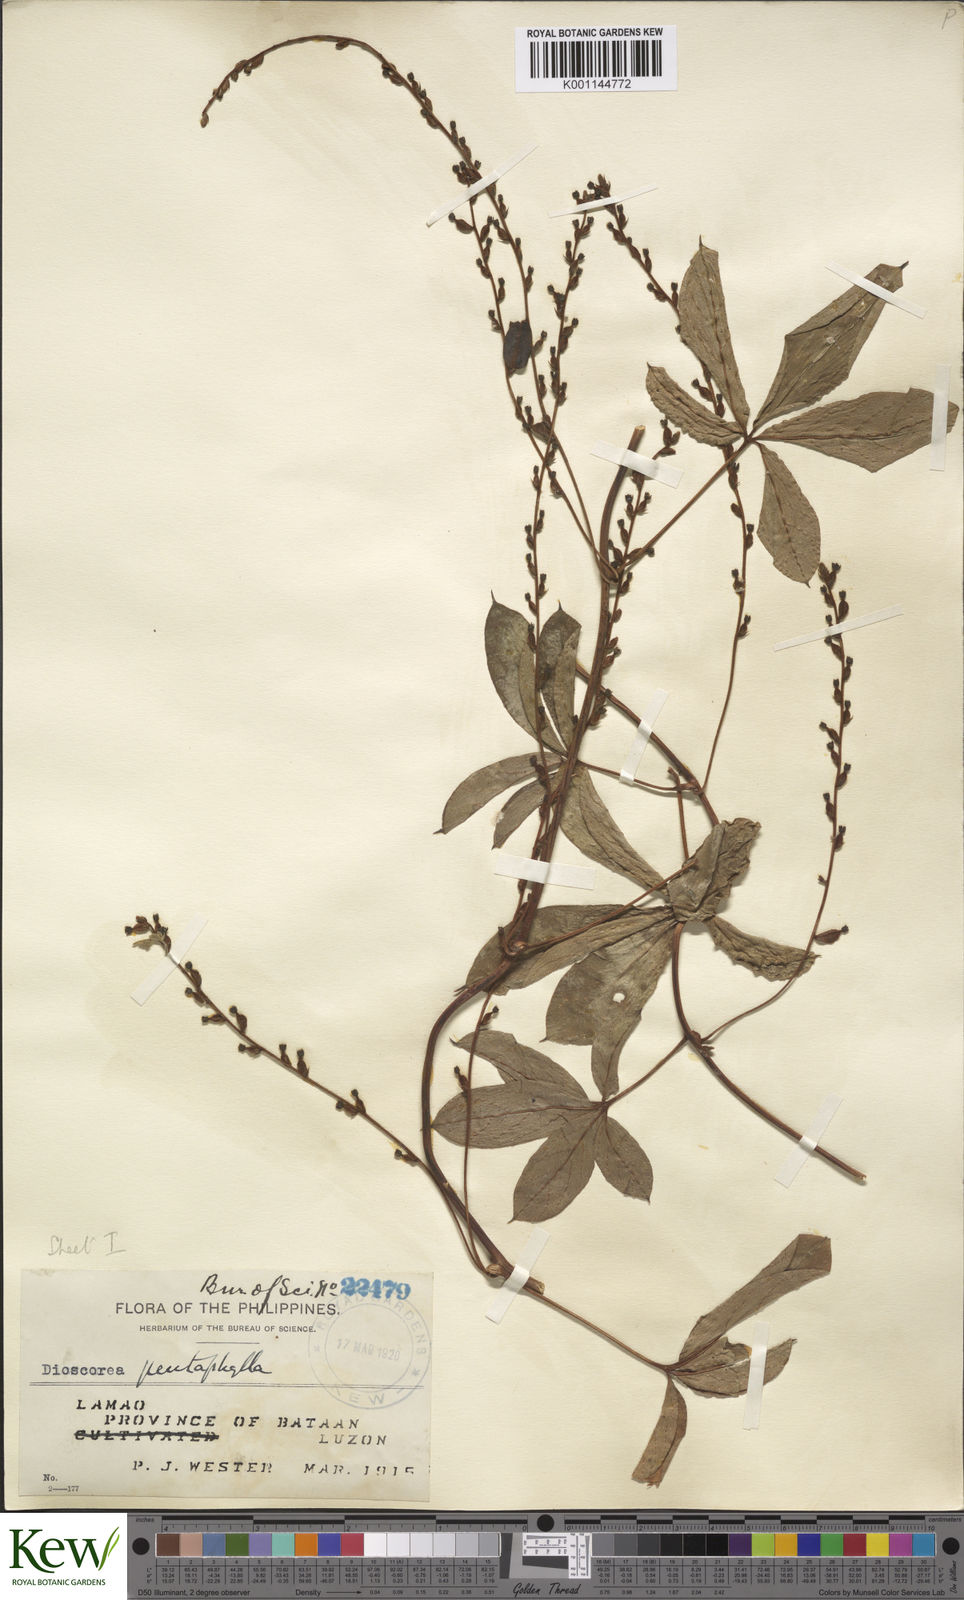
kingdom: Plantae
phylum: Tracheophyta
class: Liliopsida
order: Dioscoreales
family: Dioscoreaceae
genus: Dioscorea
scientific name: Dioscorea pentaphylla
